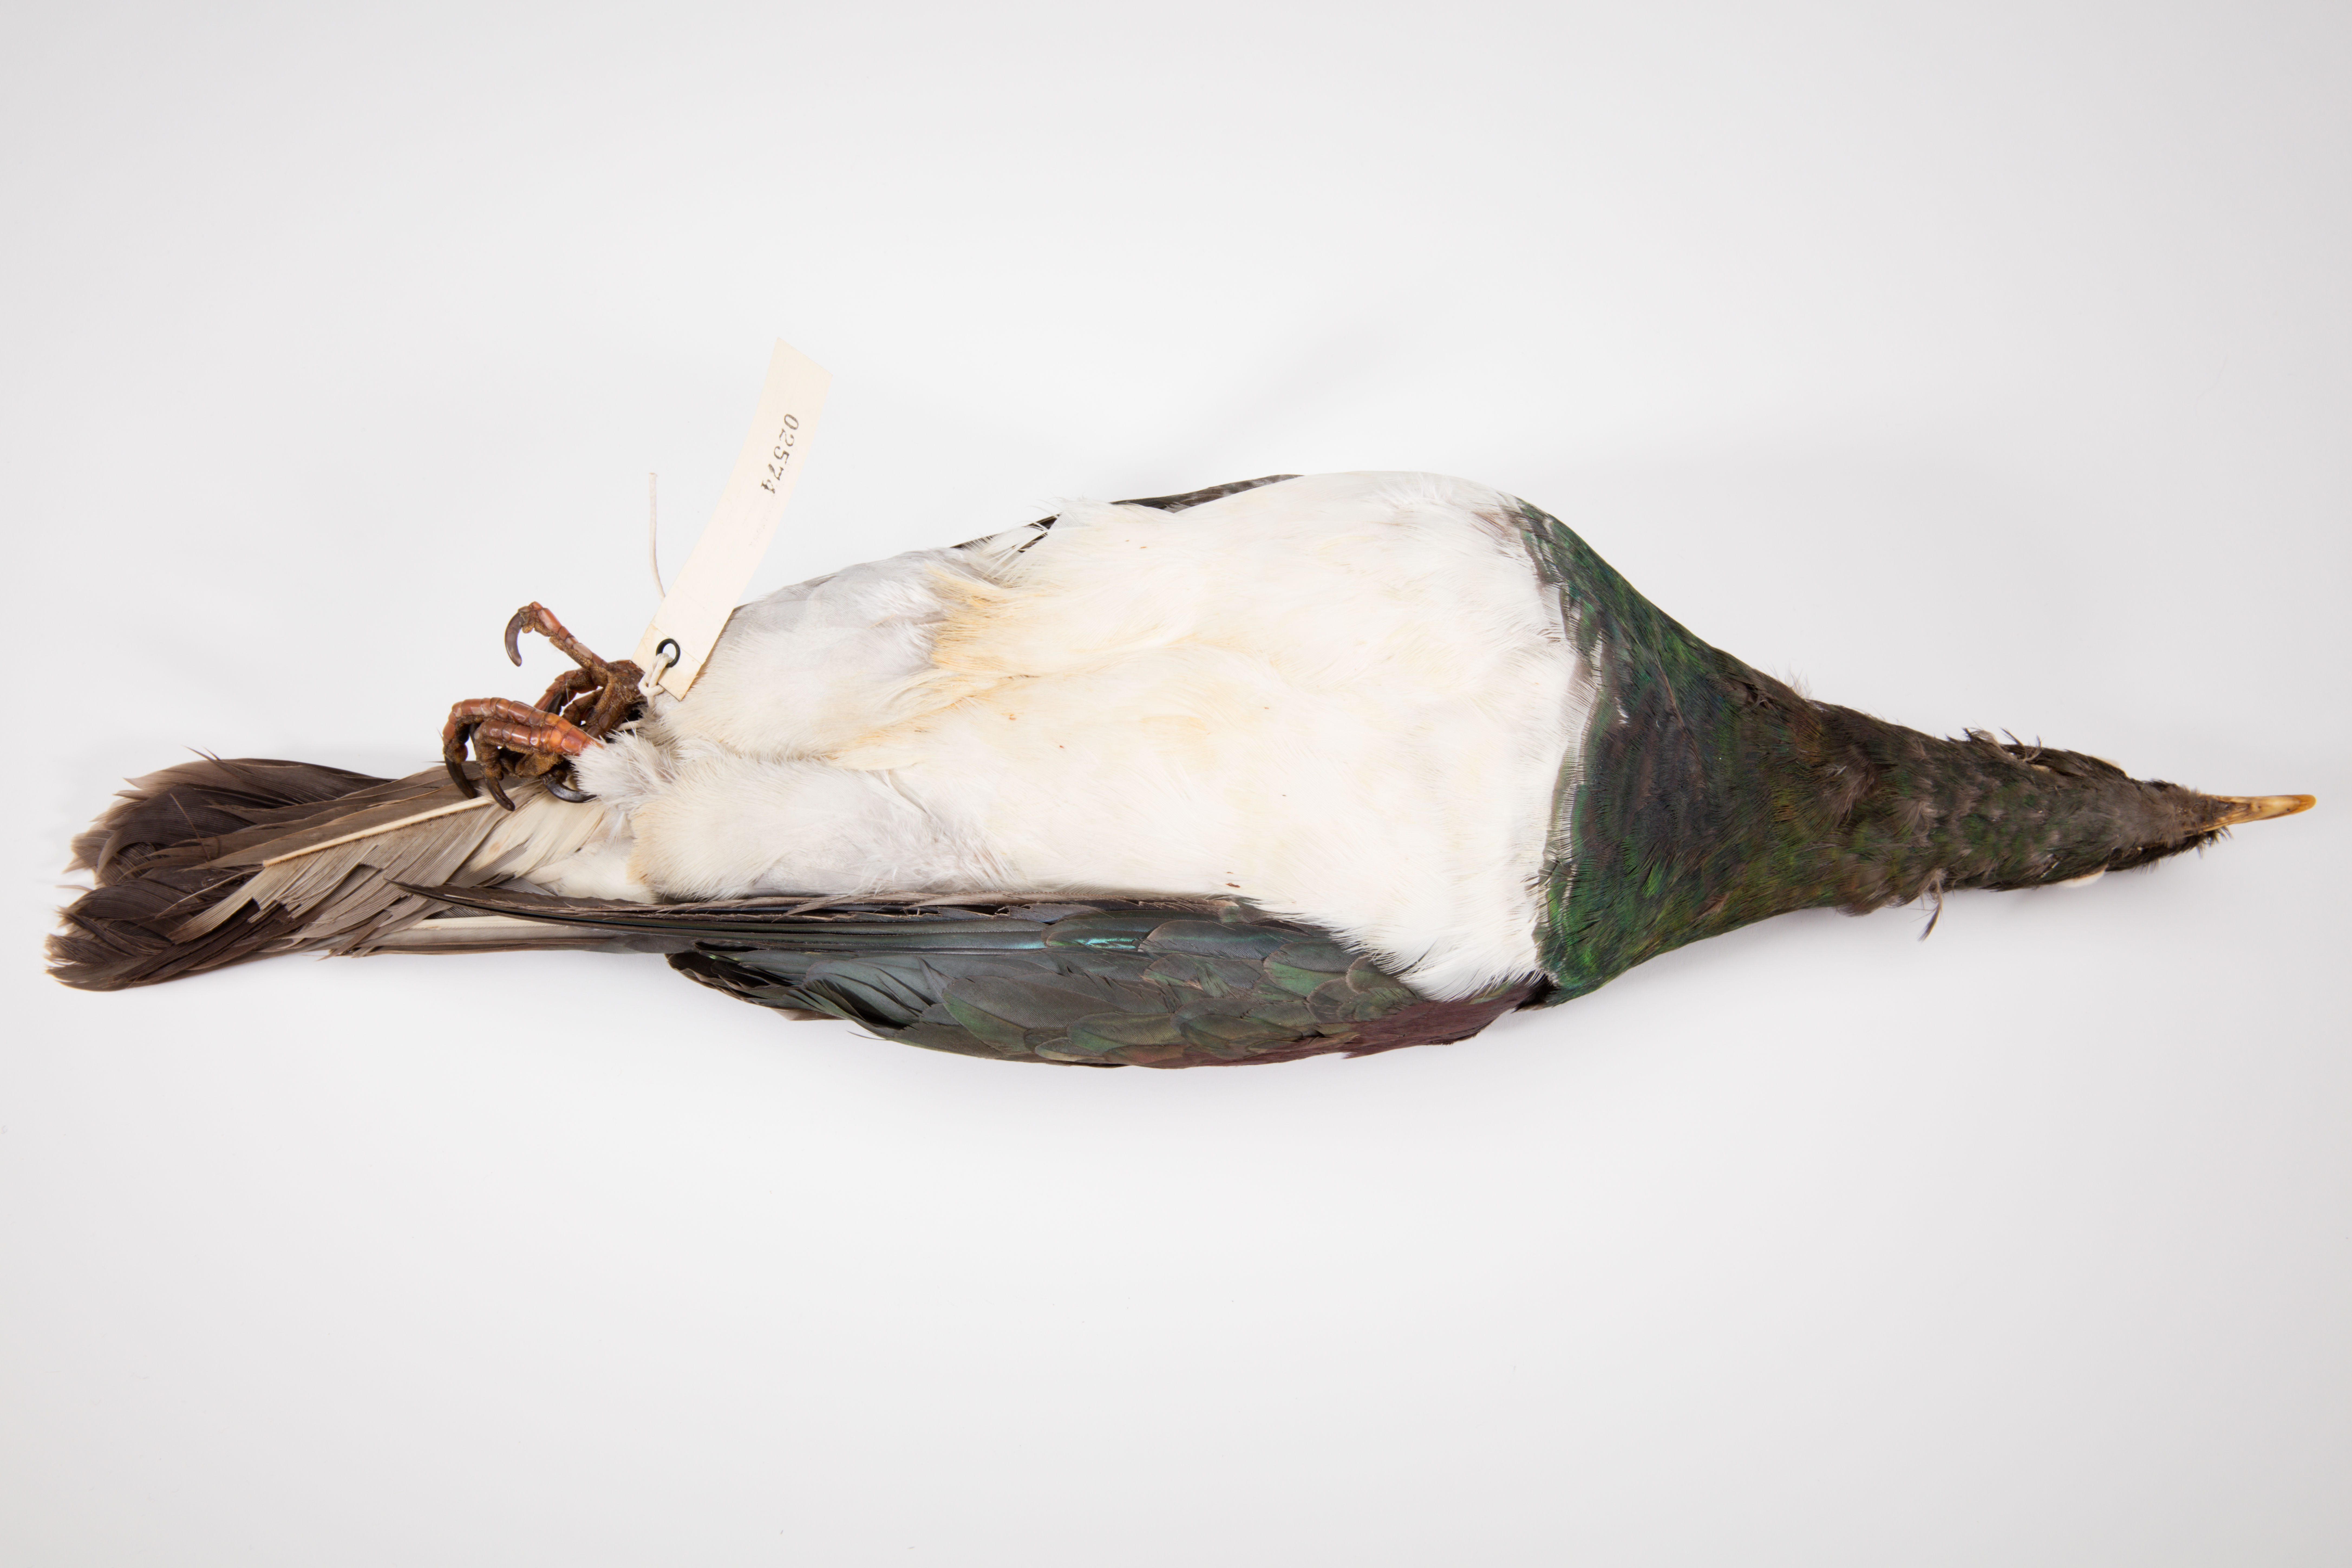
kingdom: Animalia
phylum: Chordata
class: Aves
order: Columbiformes
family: Columbidae
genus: Hemiphaga
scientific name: Hemiphaga novaeseelandiae
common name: New zealand pigeon
